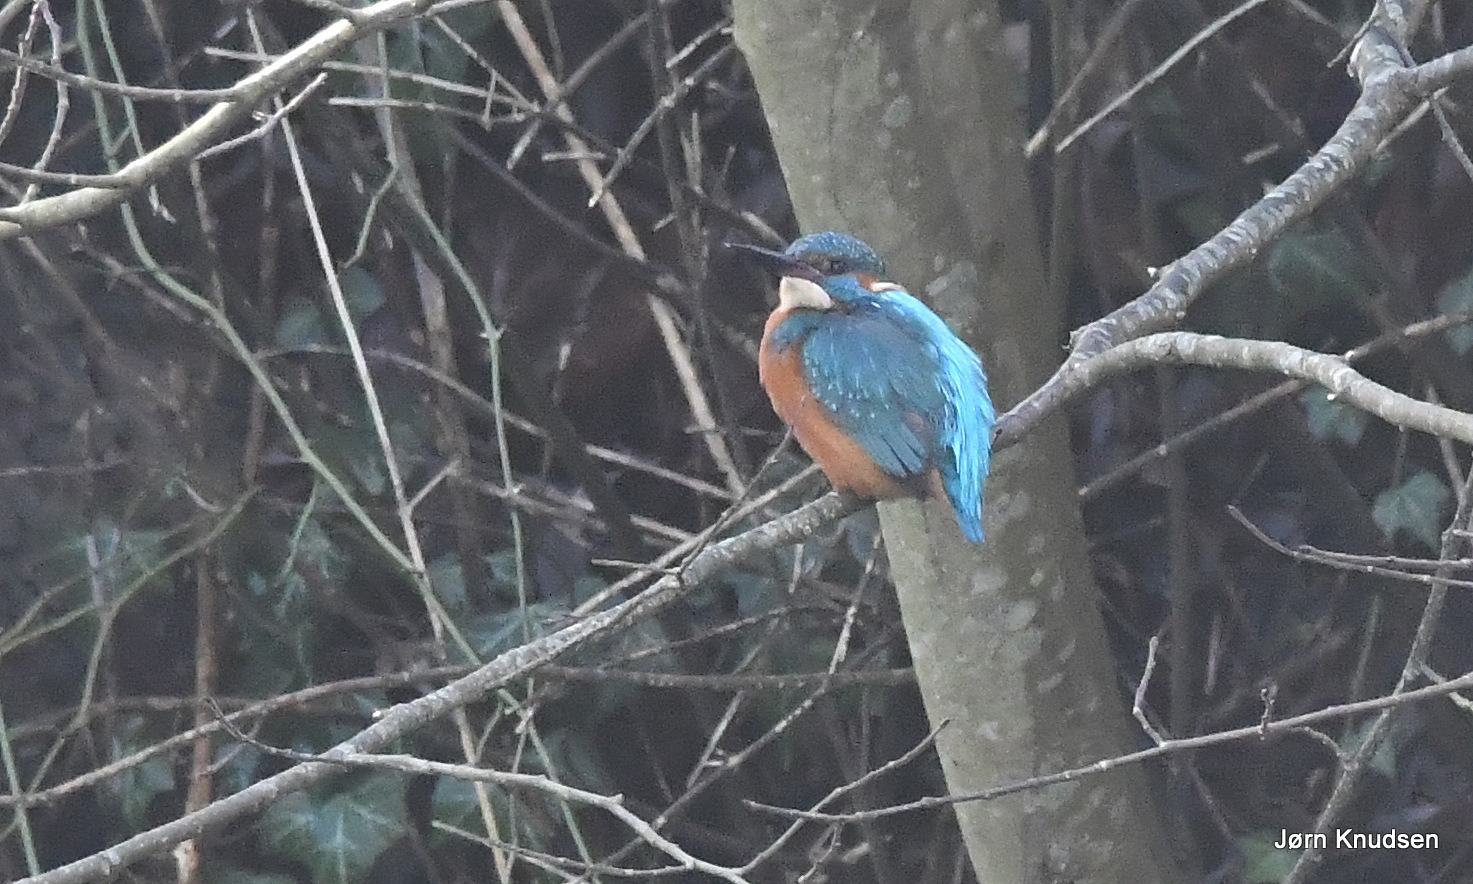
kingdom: Animalia
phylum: Chordata
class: Aves
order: Coraciiformes
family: Alcedinidae
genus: Alcedo
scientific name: Alcedo atthis
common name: Isfugl
